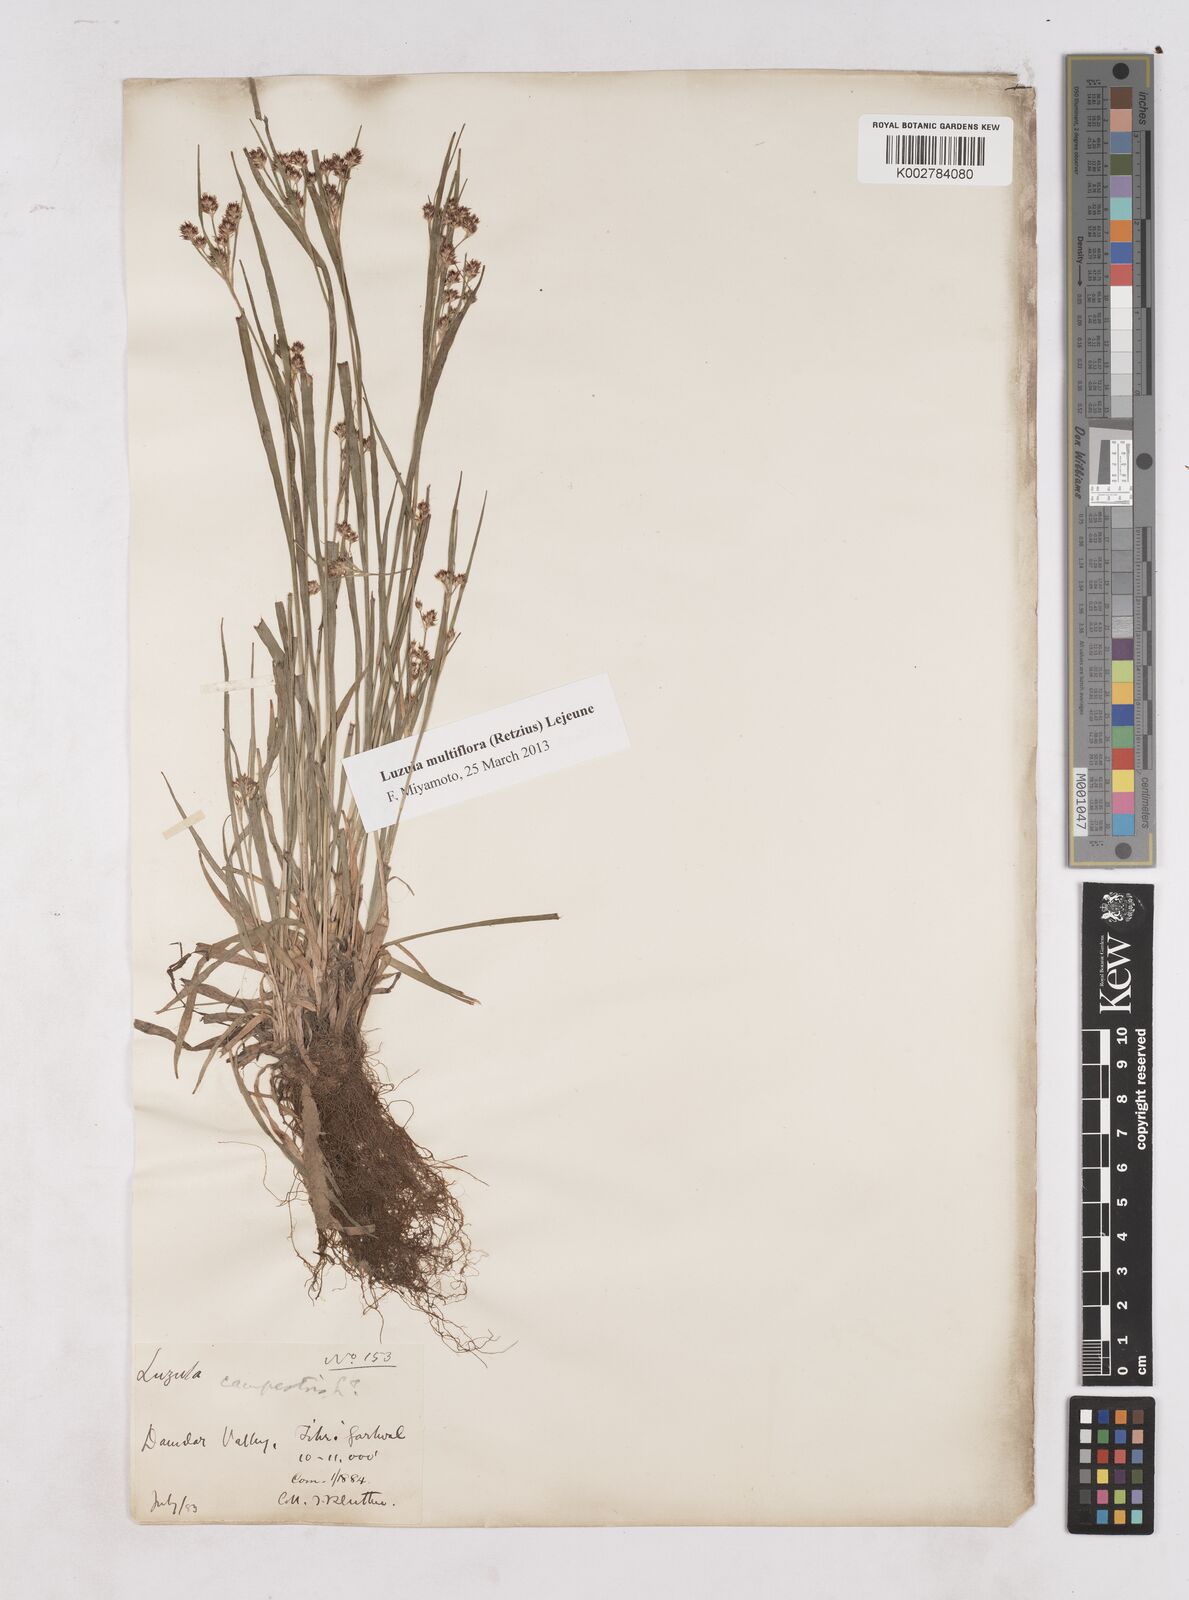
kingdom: Plantae
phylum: Tracheophyta
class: Liliopsida
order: Poales
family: Juncaceae
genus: Luzula
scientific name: Luzula campestris
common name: Field wood-rush
